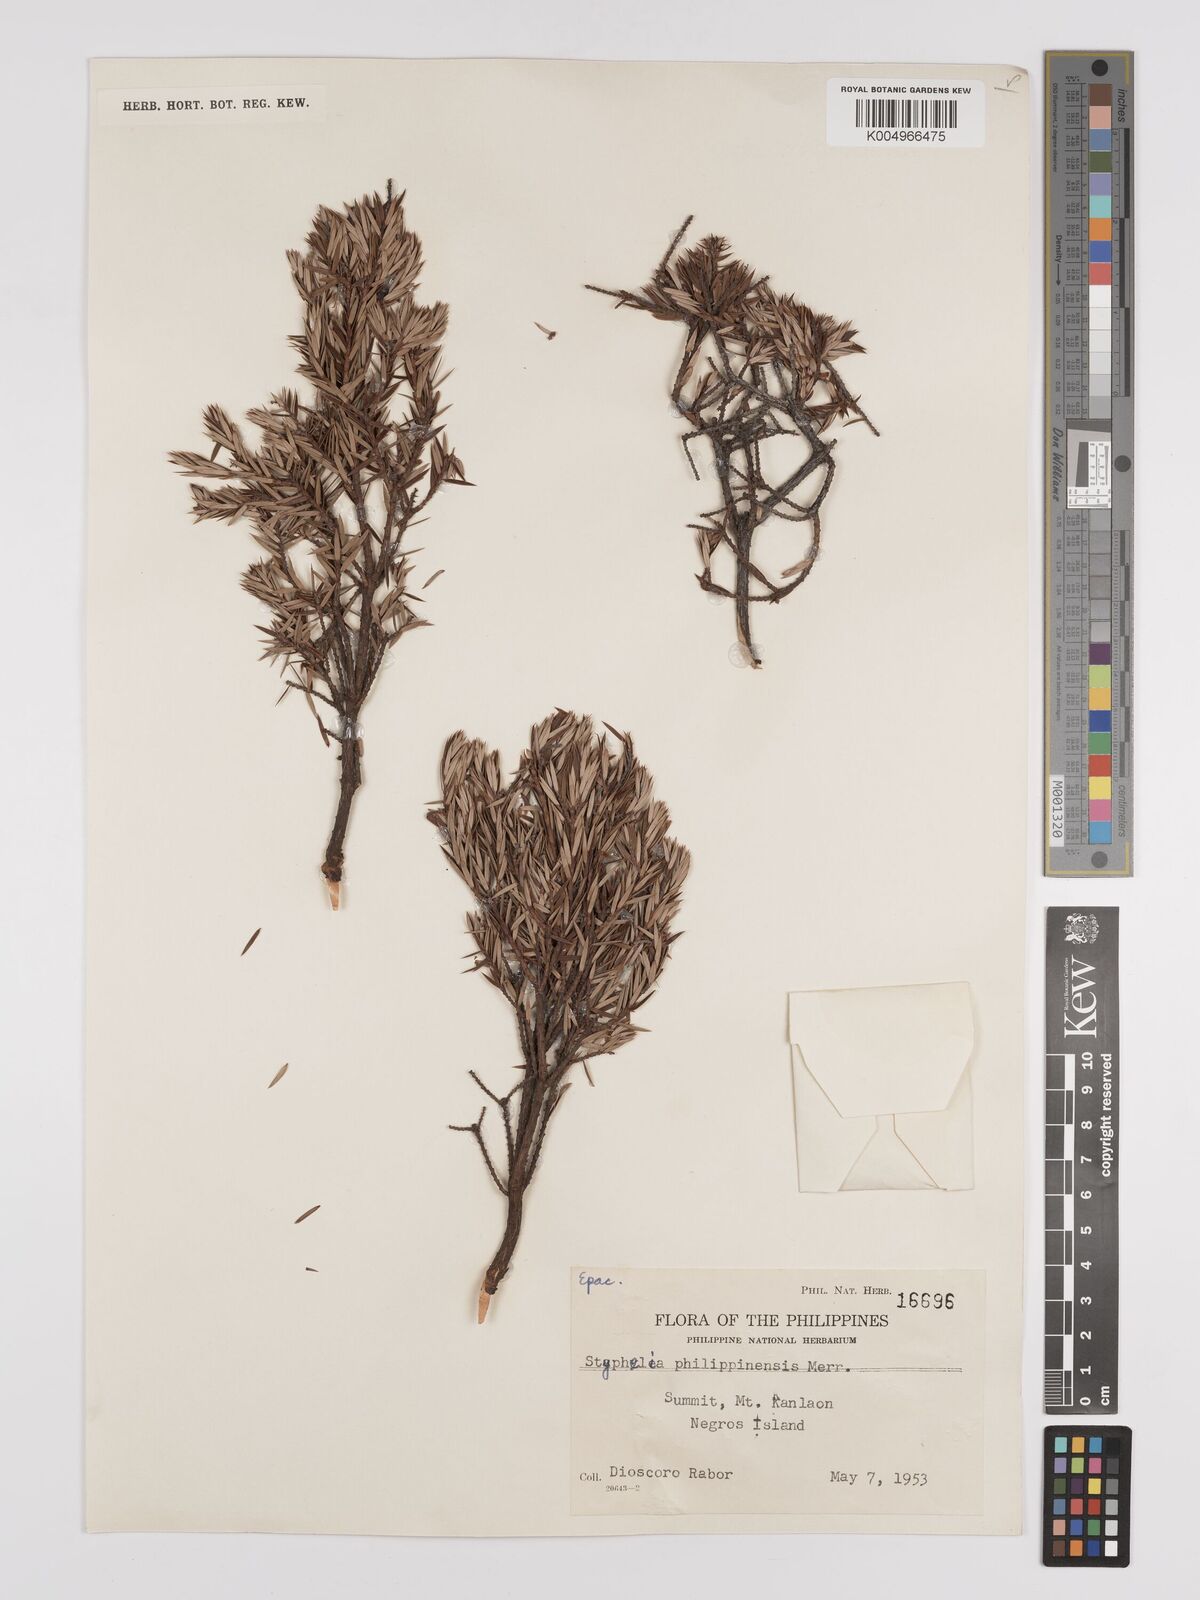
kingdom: Plantae
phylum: Tracheophyta
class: Magnoliopsida
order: Ericales
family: Ericaceae
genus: Acrothamnus
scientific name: Acrothamnus suaveolens
